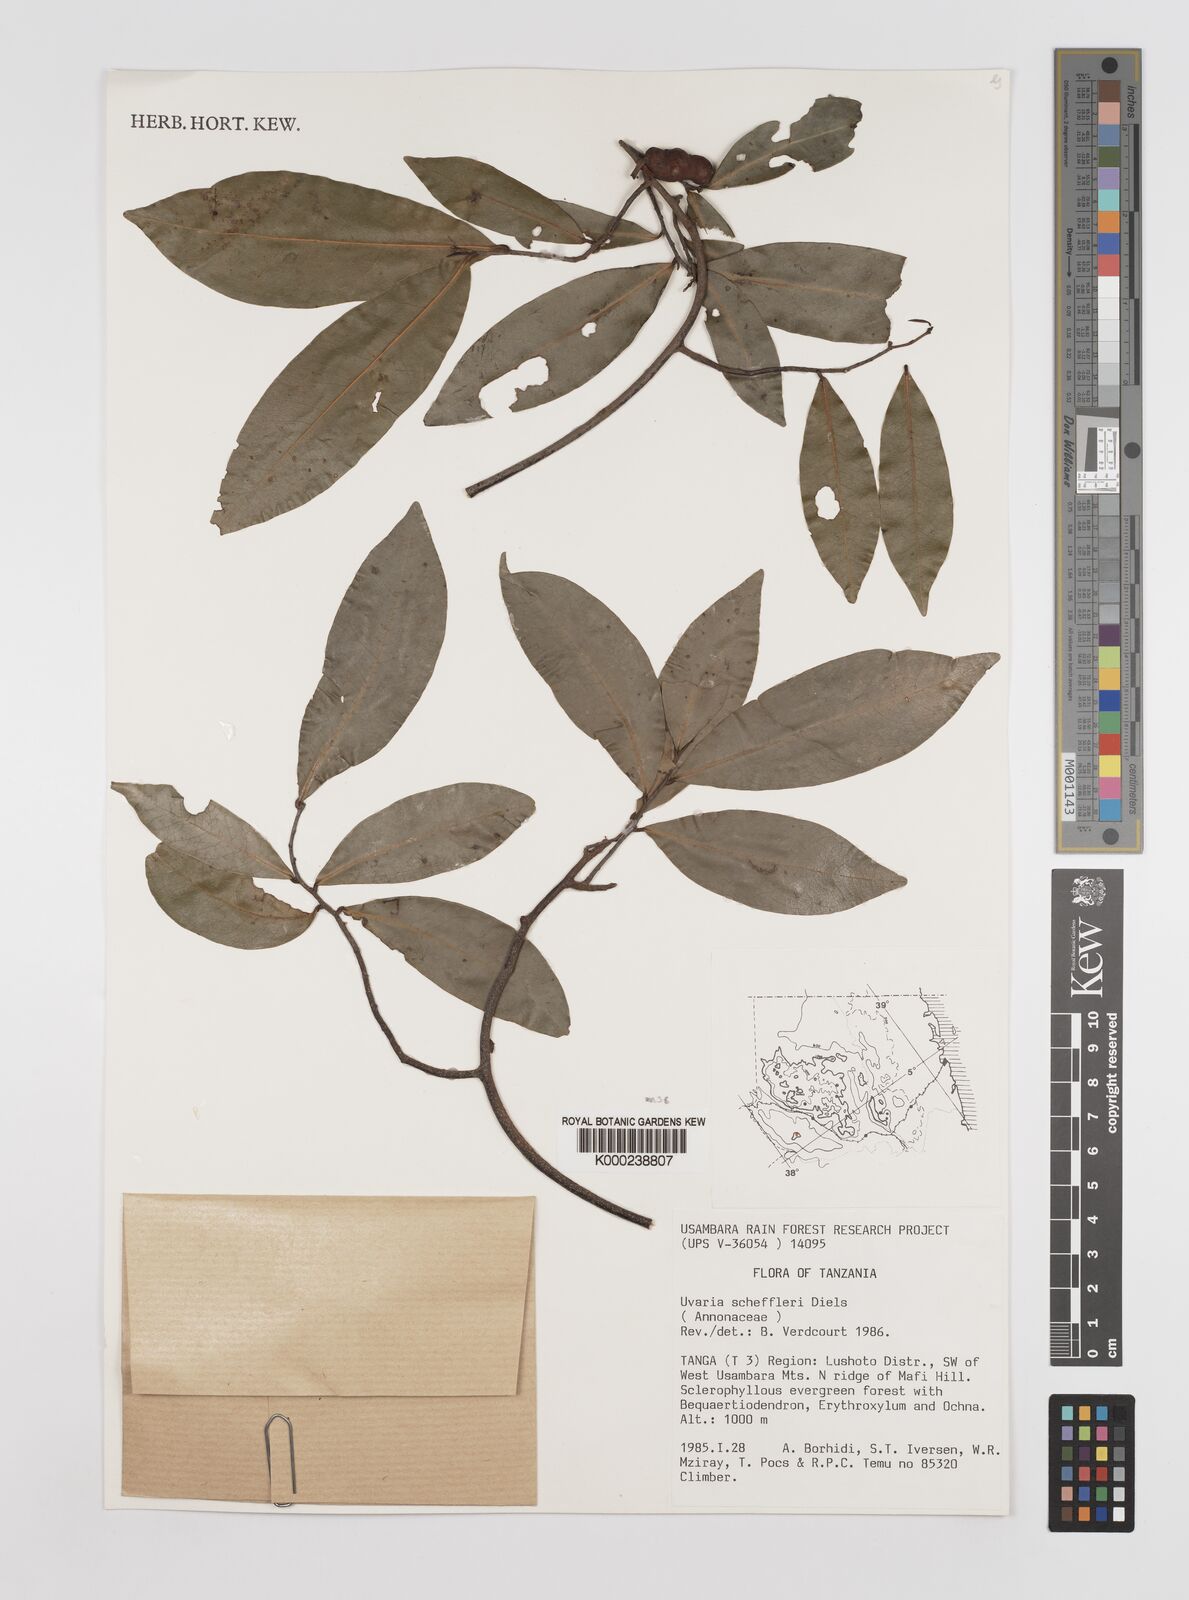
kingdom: Plantae
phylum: Tracheophyta
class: Magnoliopsida
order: Magnoliales
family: Annonaceae
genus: Uvaria
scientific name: Uvaria scheffleri
